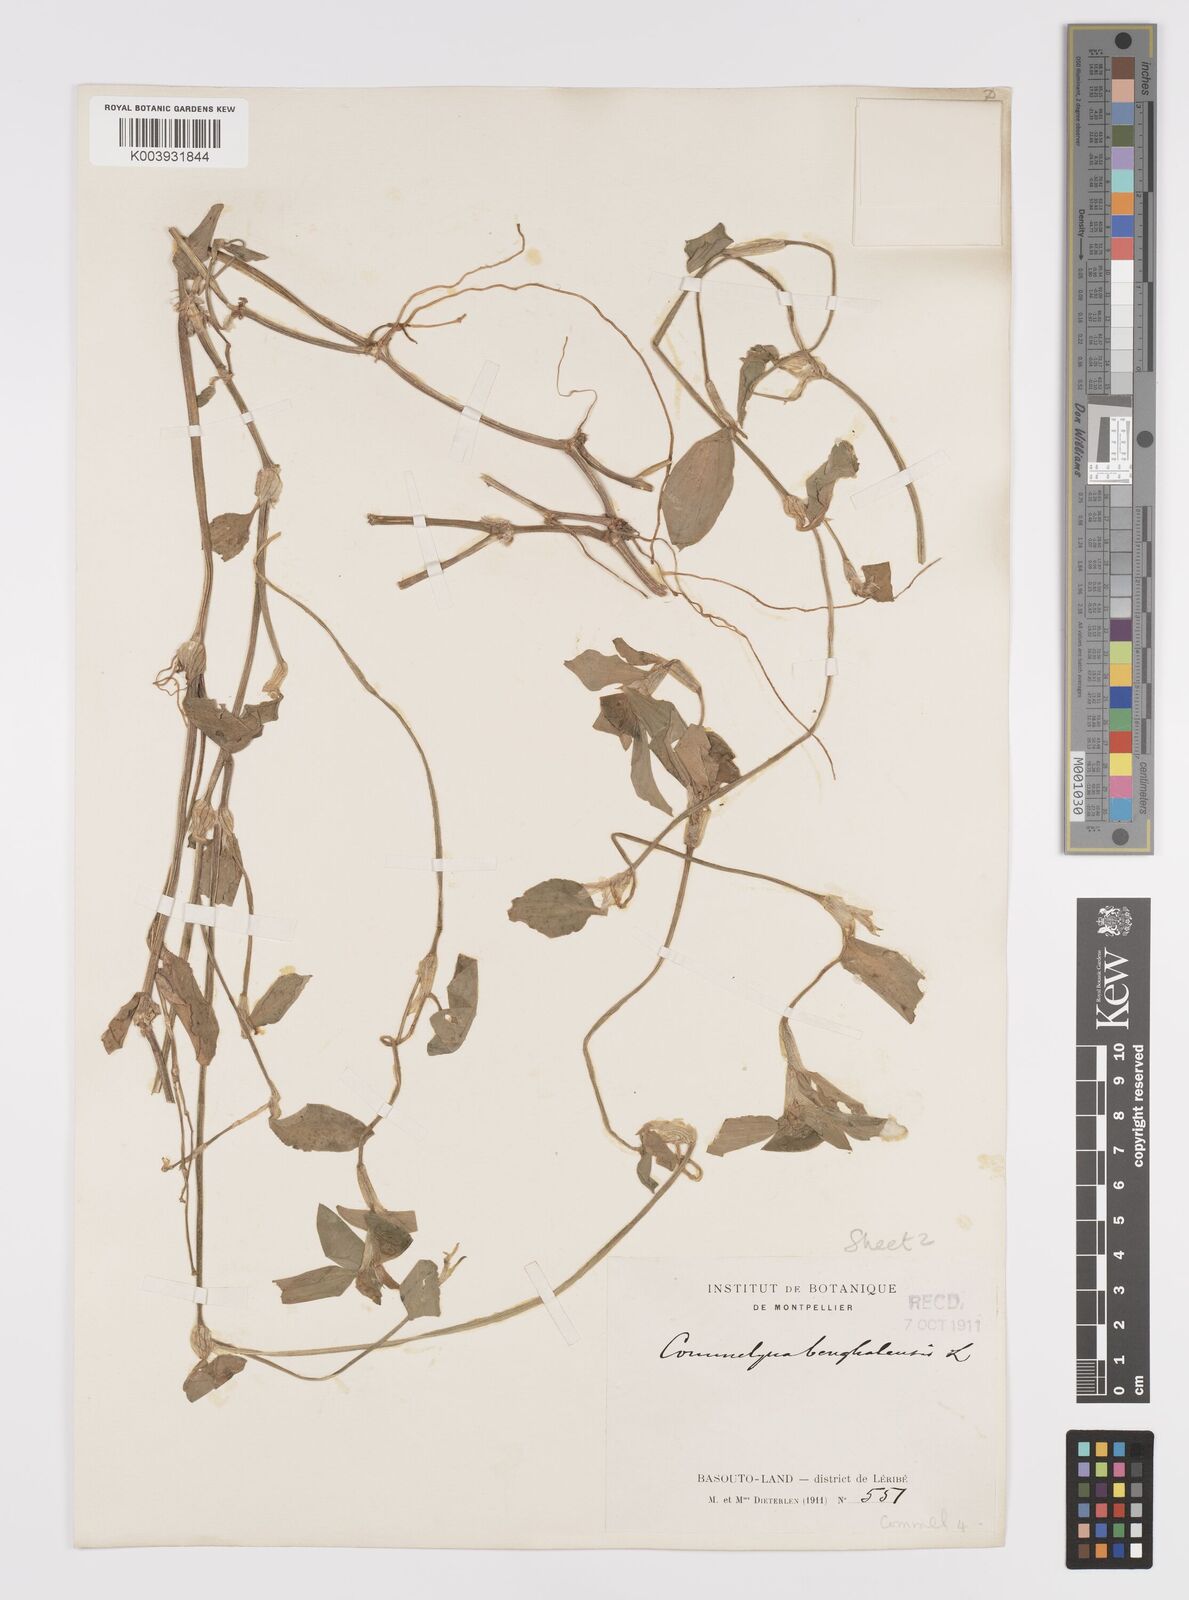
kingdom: Plantae
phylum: Tracheophyta
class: Liliopsida
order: Commelinales
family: Commelinaceae
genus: Commelina
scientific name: Commelina benghalensis
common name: Jio
